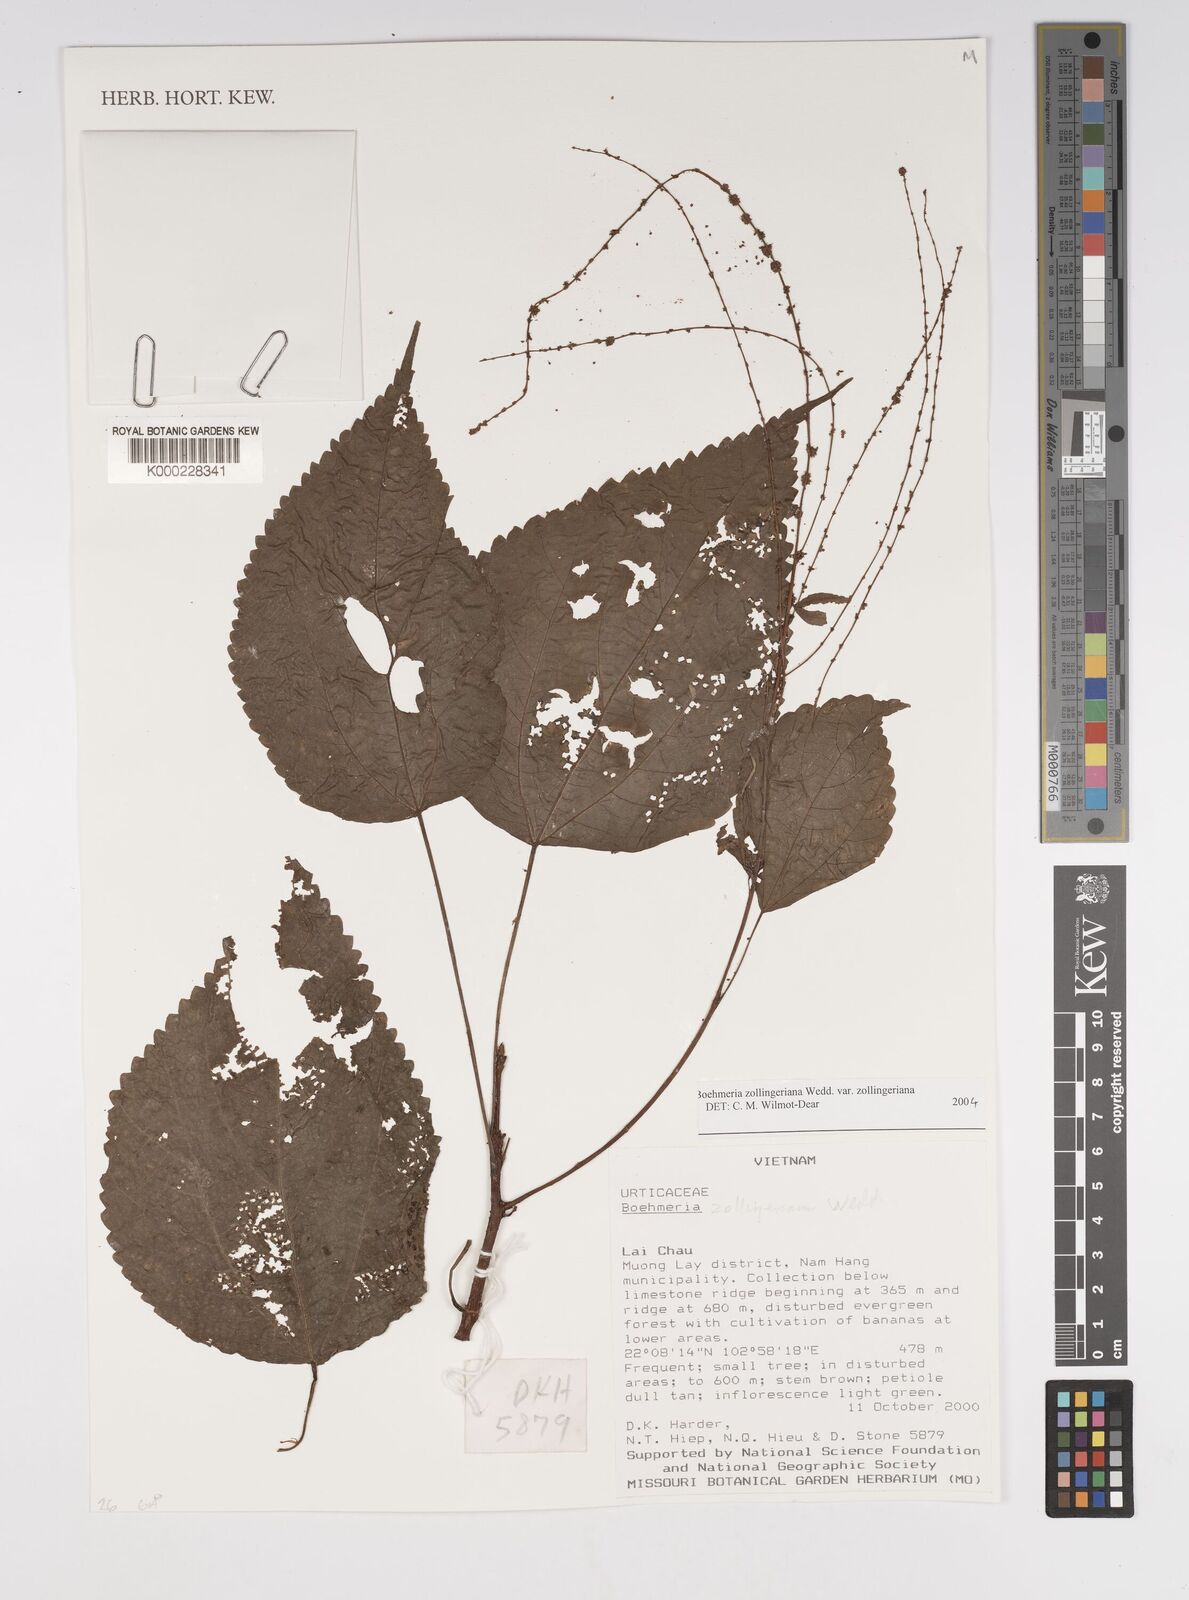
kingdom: Plantae
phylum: Tracheophyta
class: Magnoliopsida
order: Rosales
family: Urticaceae
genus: Boehmeria
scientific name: Boehmeria zollingeriana
